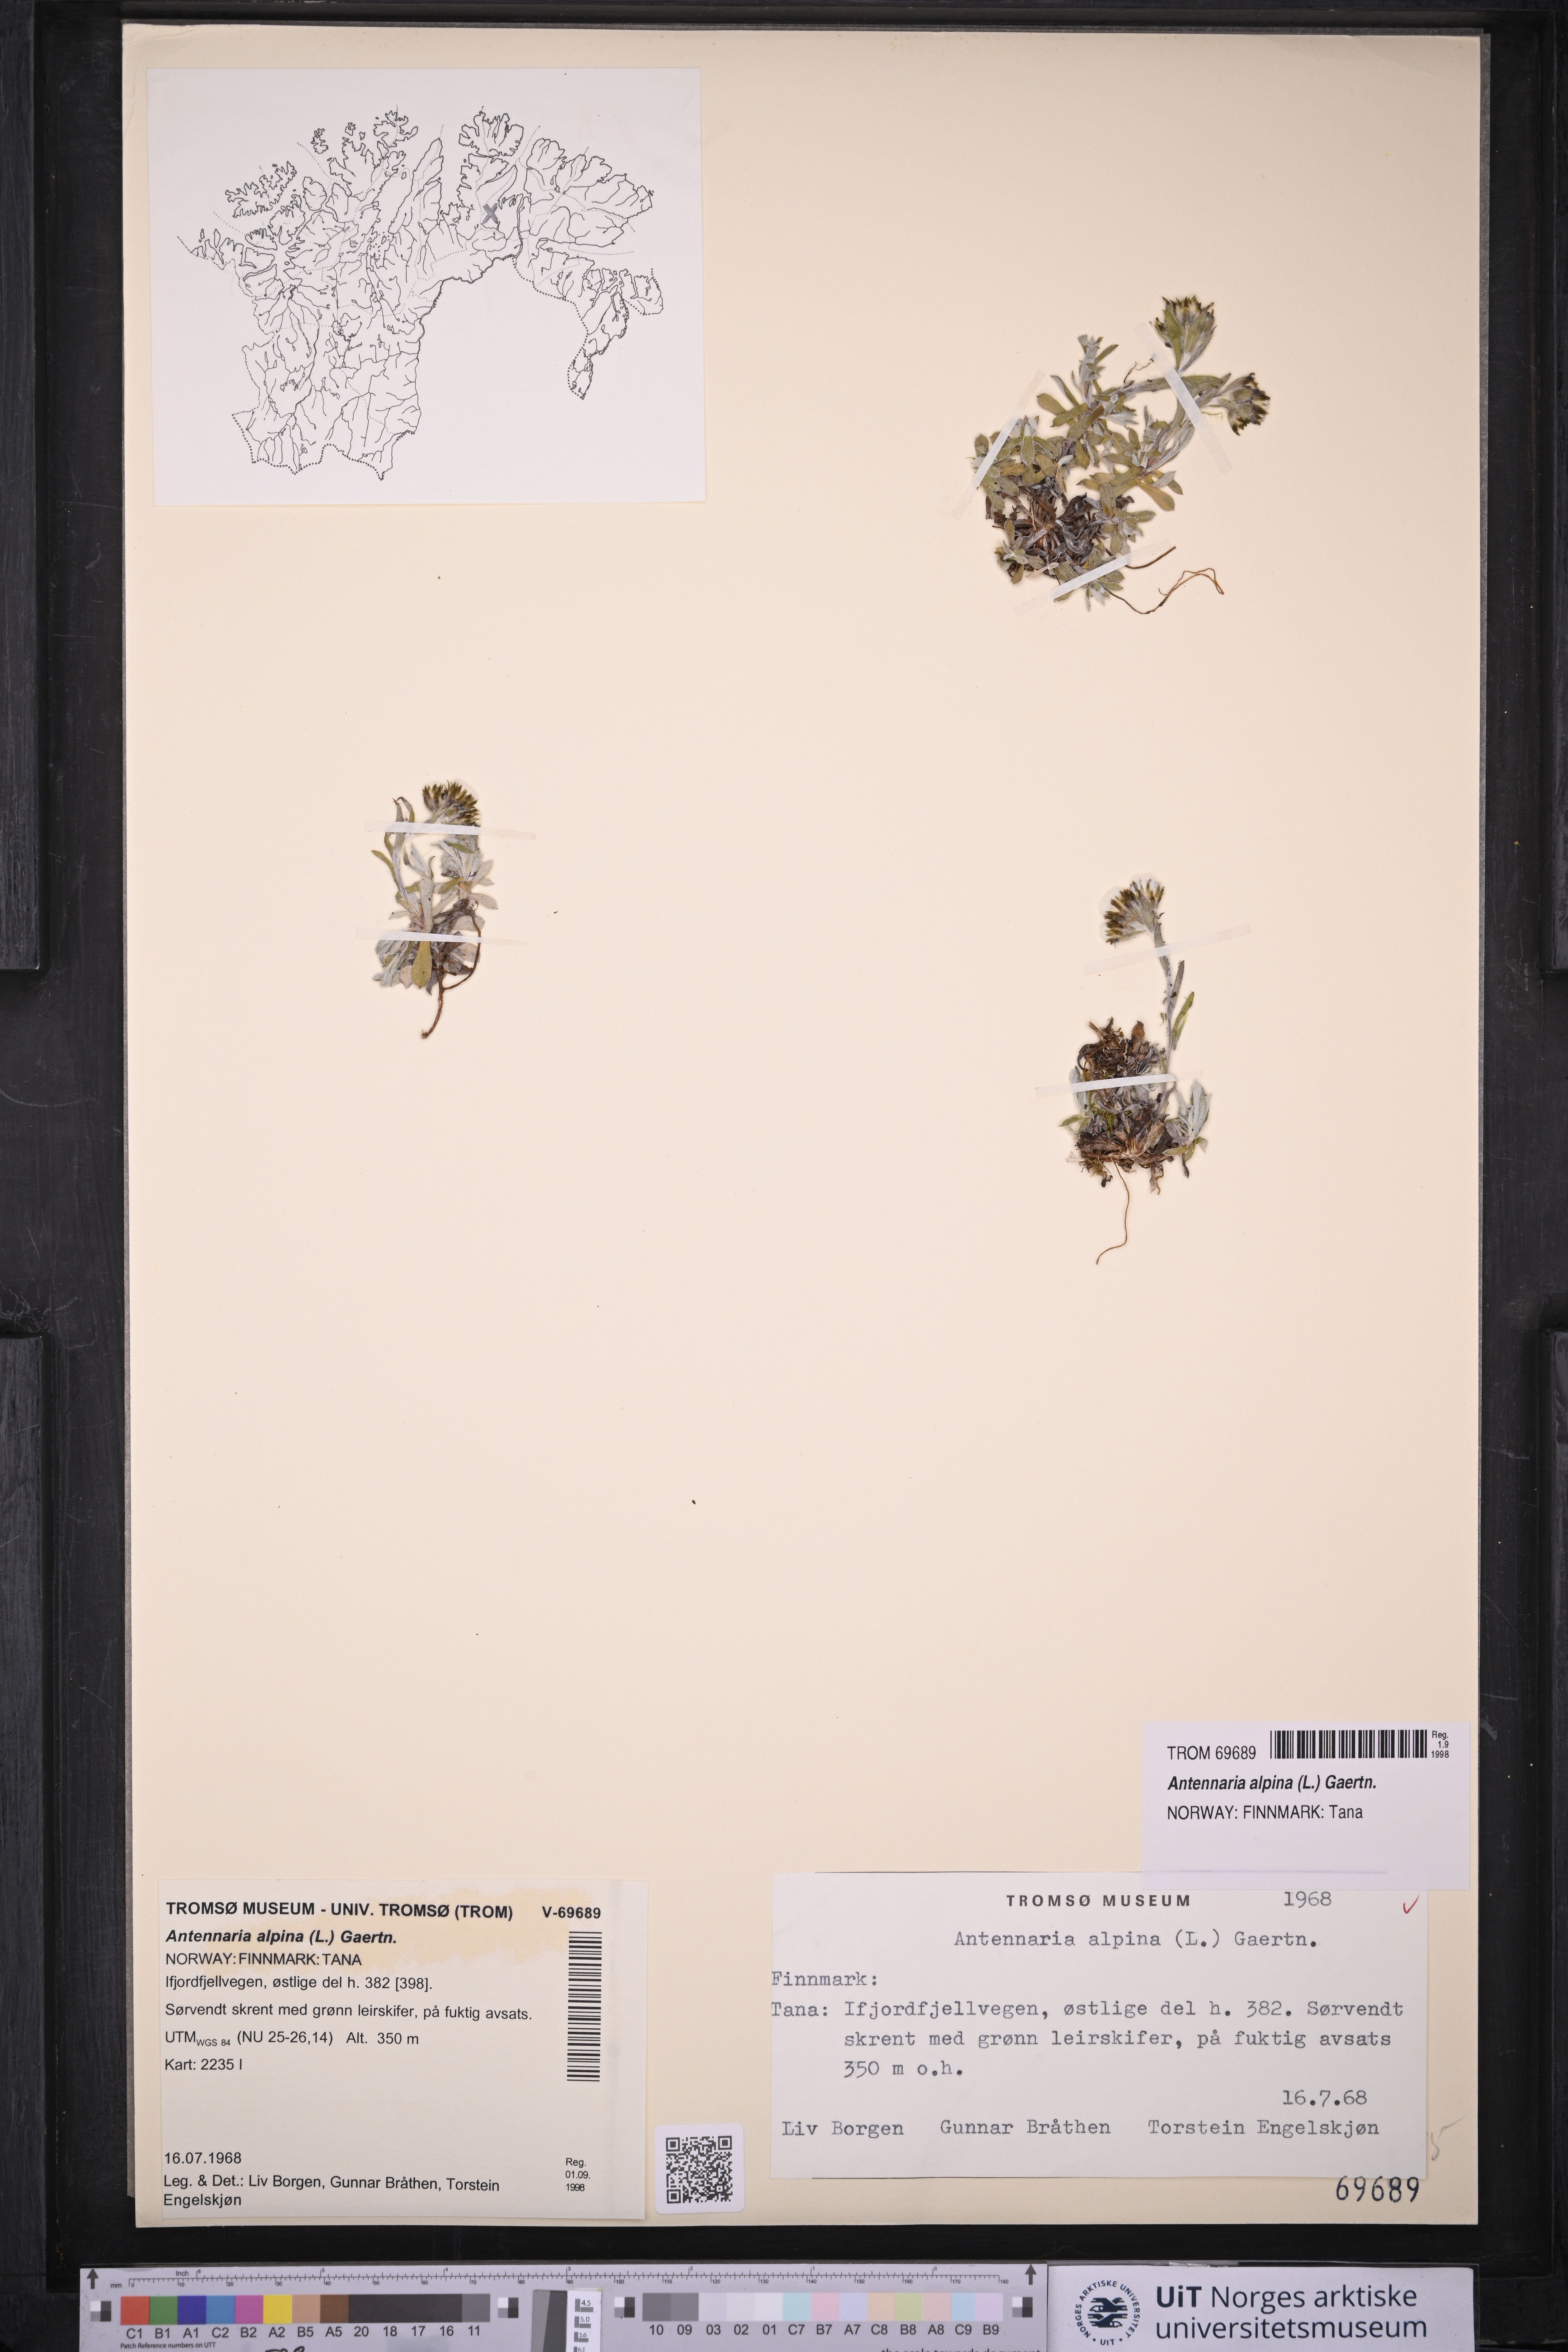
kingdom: Plantae
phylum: Tracheophyta
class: Magnoliopsida
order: Asterales
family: Asteraceae
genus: Antennaria
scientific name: Antennaria alpina
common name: Alpine pussytoes
